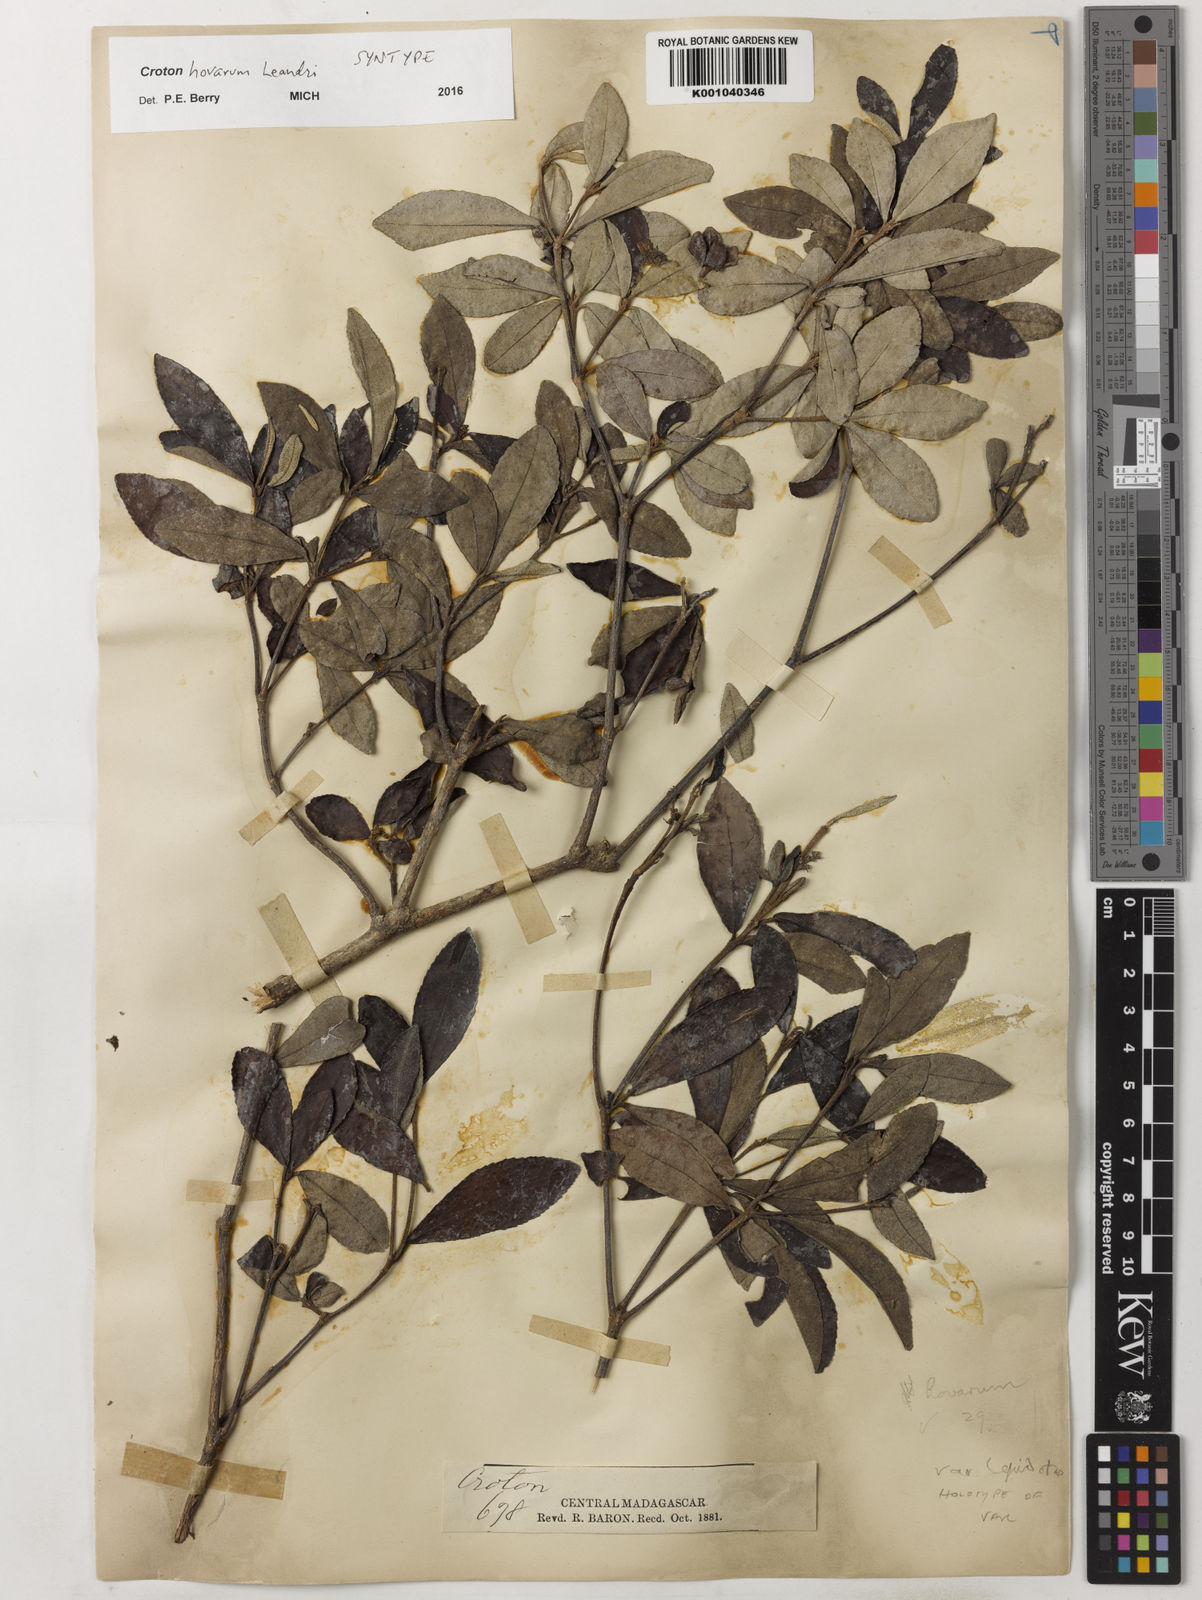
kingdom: Plantae
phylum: Tracheophyta
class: Magnoliopsida
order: Malpighiales
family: Euphorbiaceae
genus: Croton
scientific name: Croton hovarum
